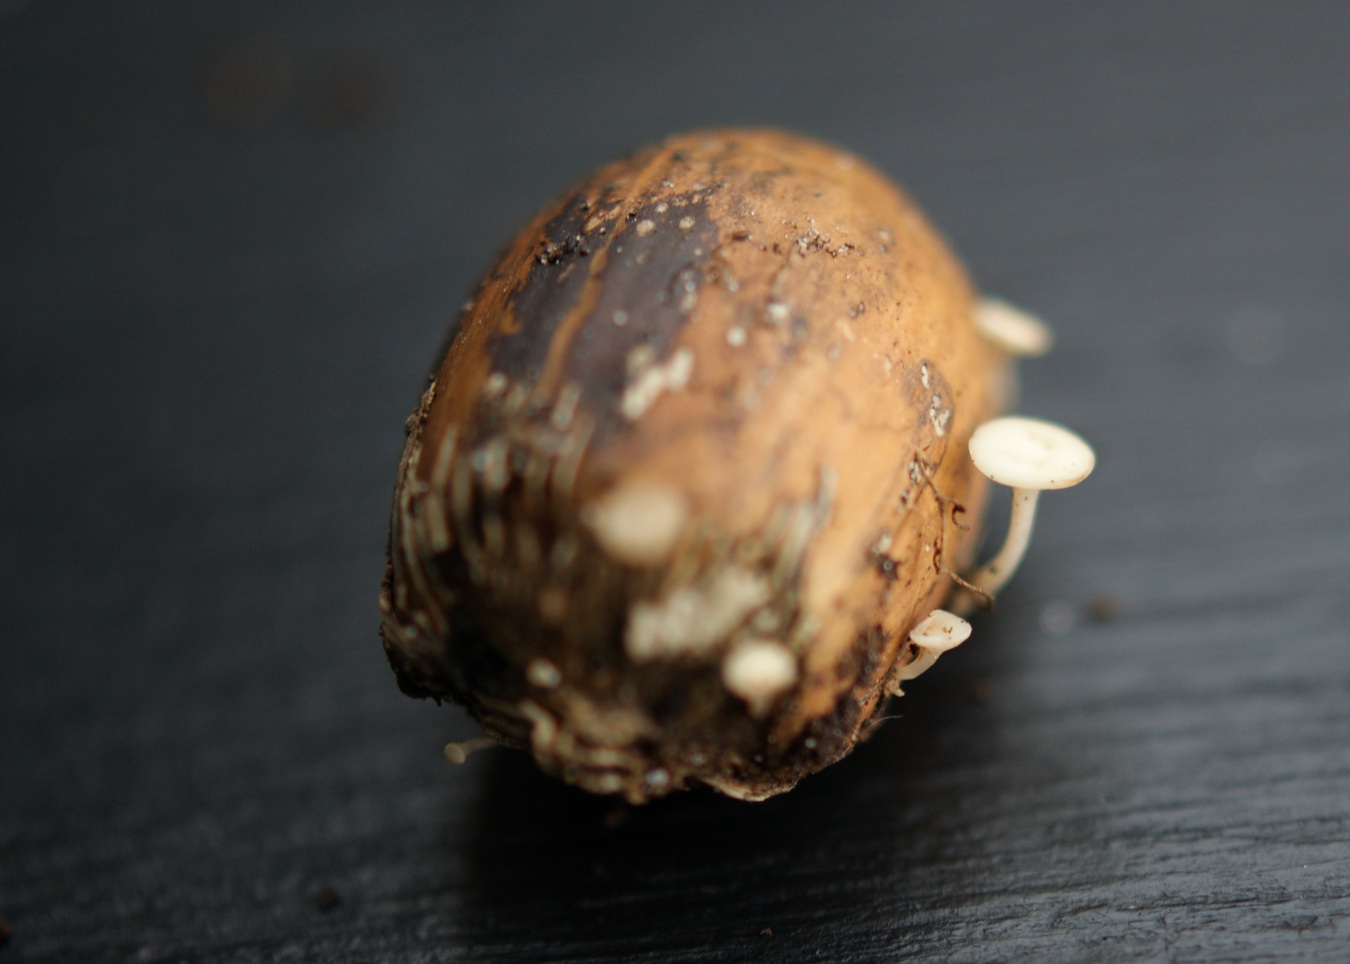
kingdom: Fungi
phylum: Ascomycota
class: Leotiomycetes
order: Helotiales
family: Helotiaceae
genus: Hymenoscyphus
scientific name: Hymenoscyphus rokebyensis
